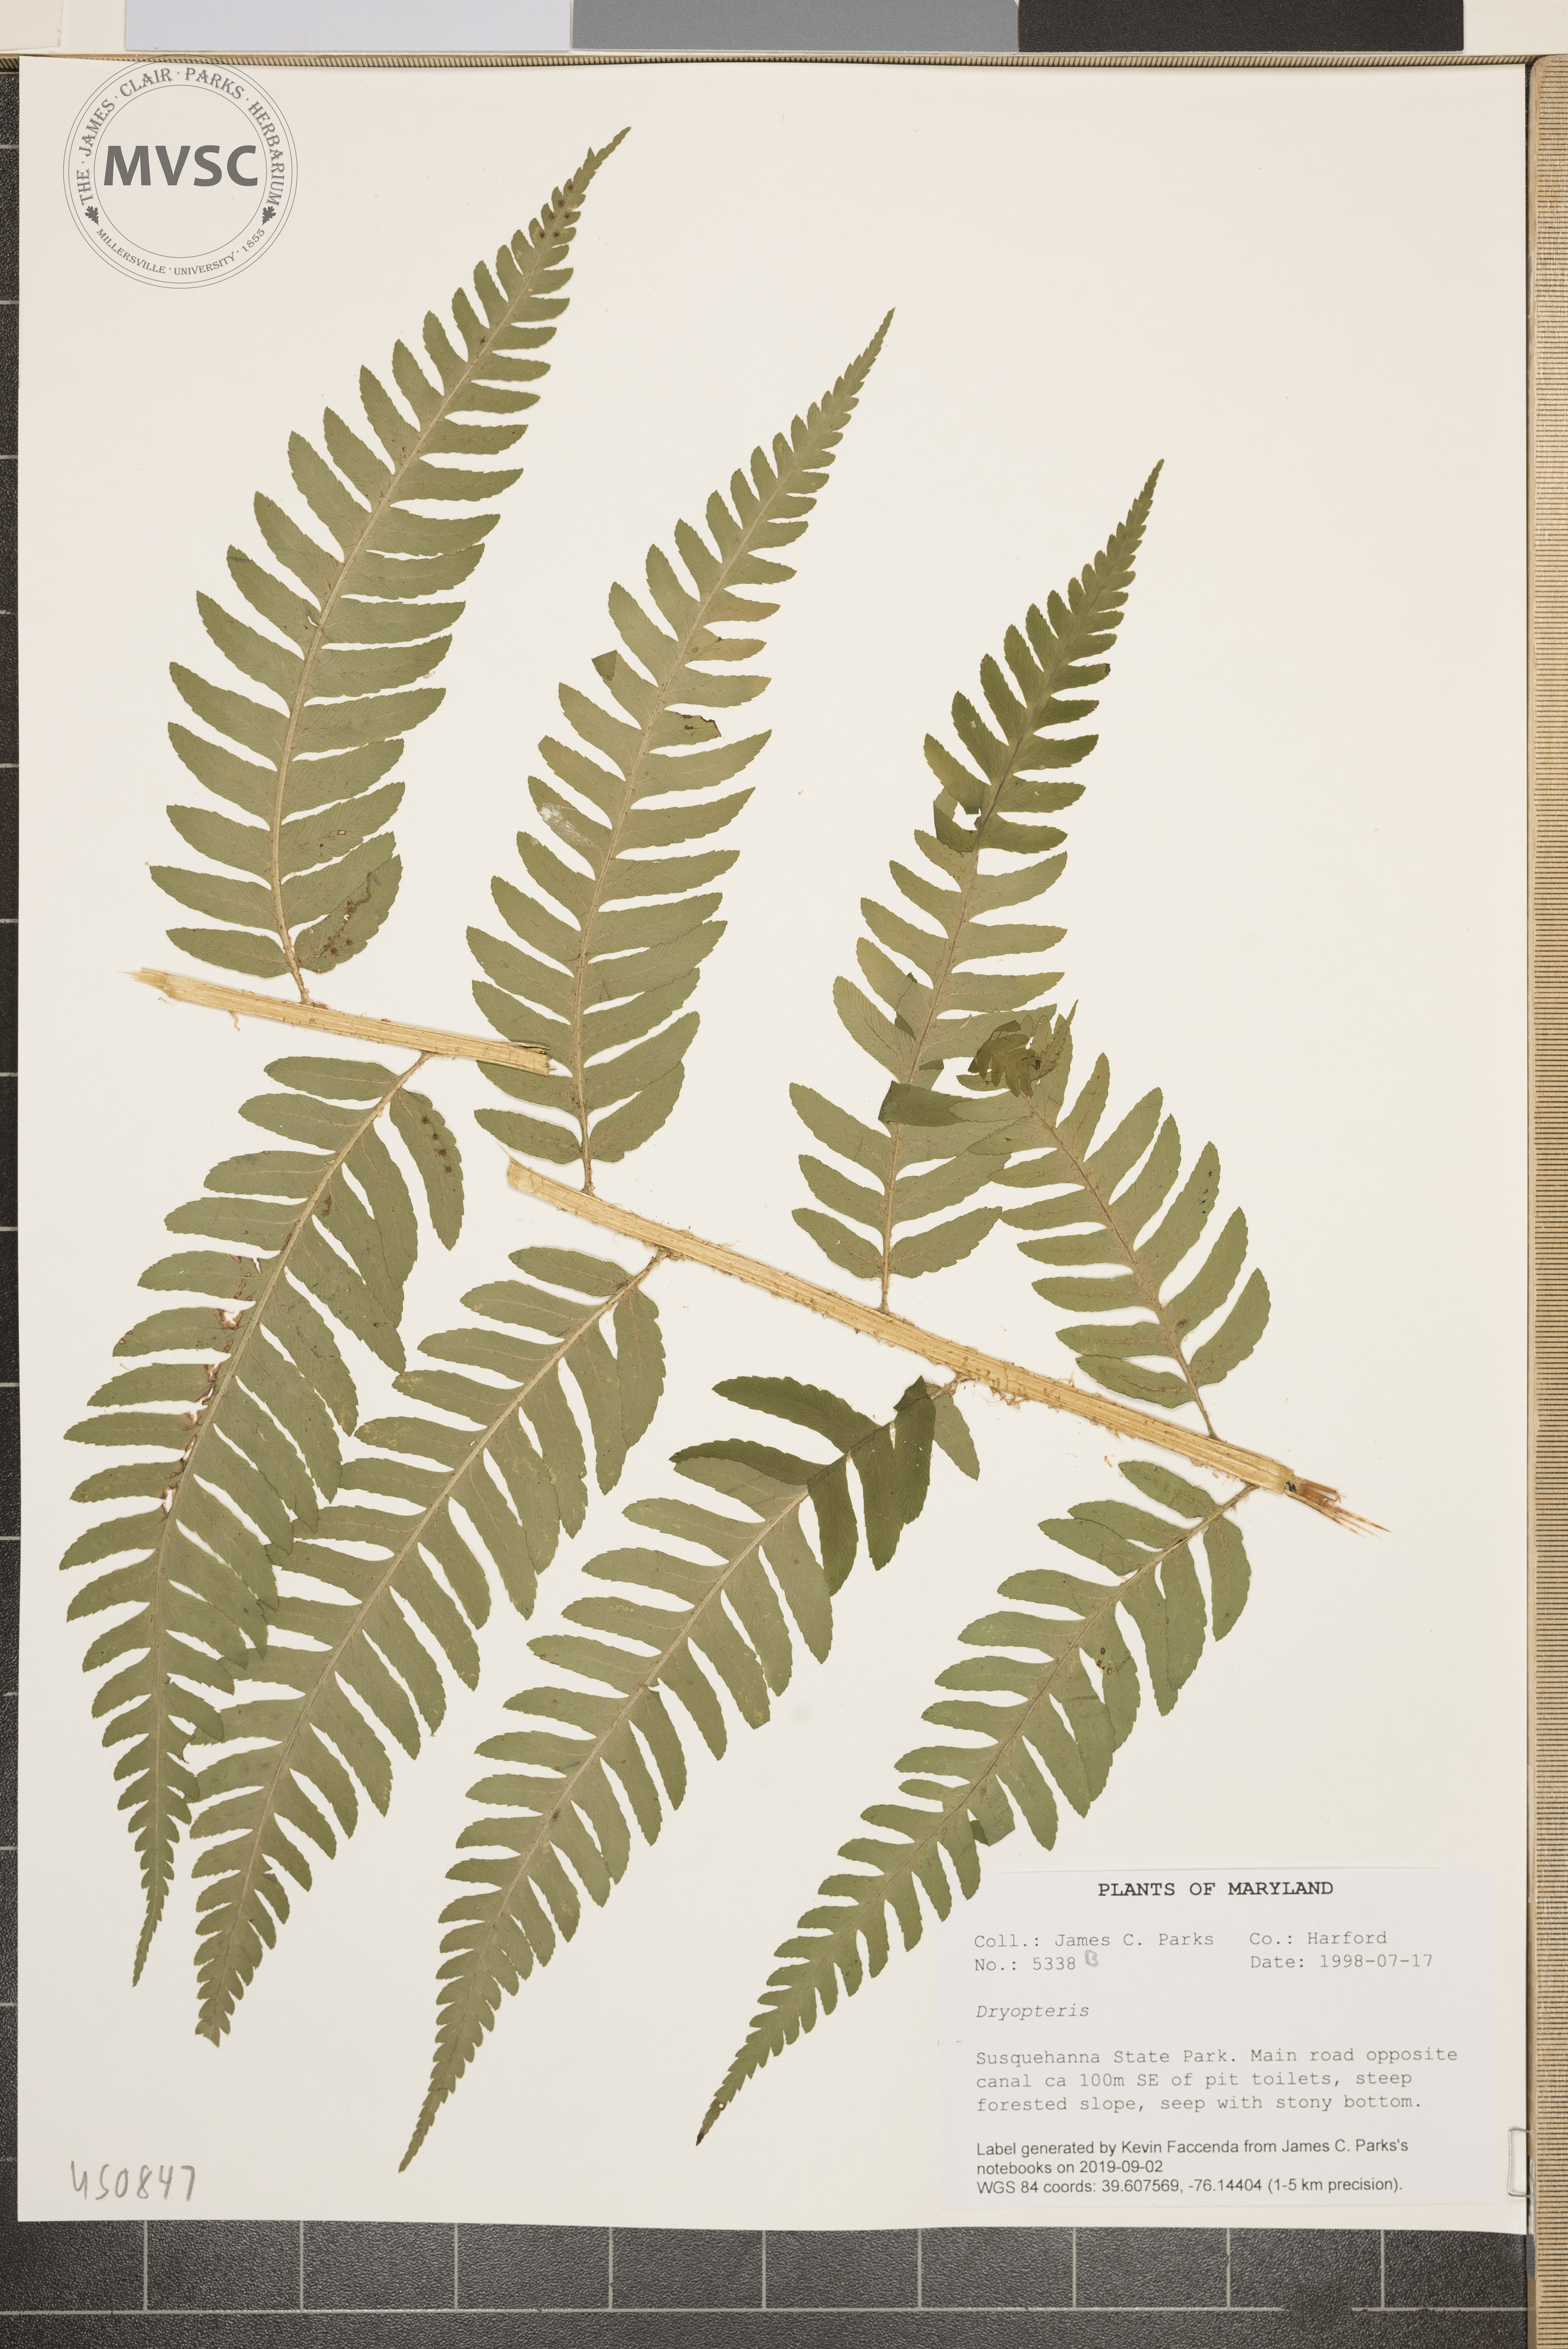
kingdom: Plantae
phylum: Tracheophyta
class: Polypodiopsida
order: Polypodiales
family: Dryopteridaceae
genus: Dryopteris
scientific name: Dryopteris celsa
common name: Log fern
